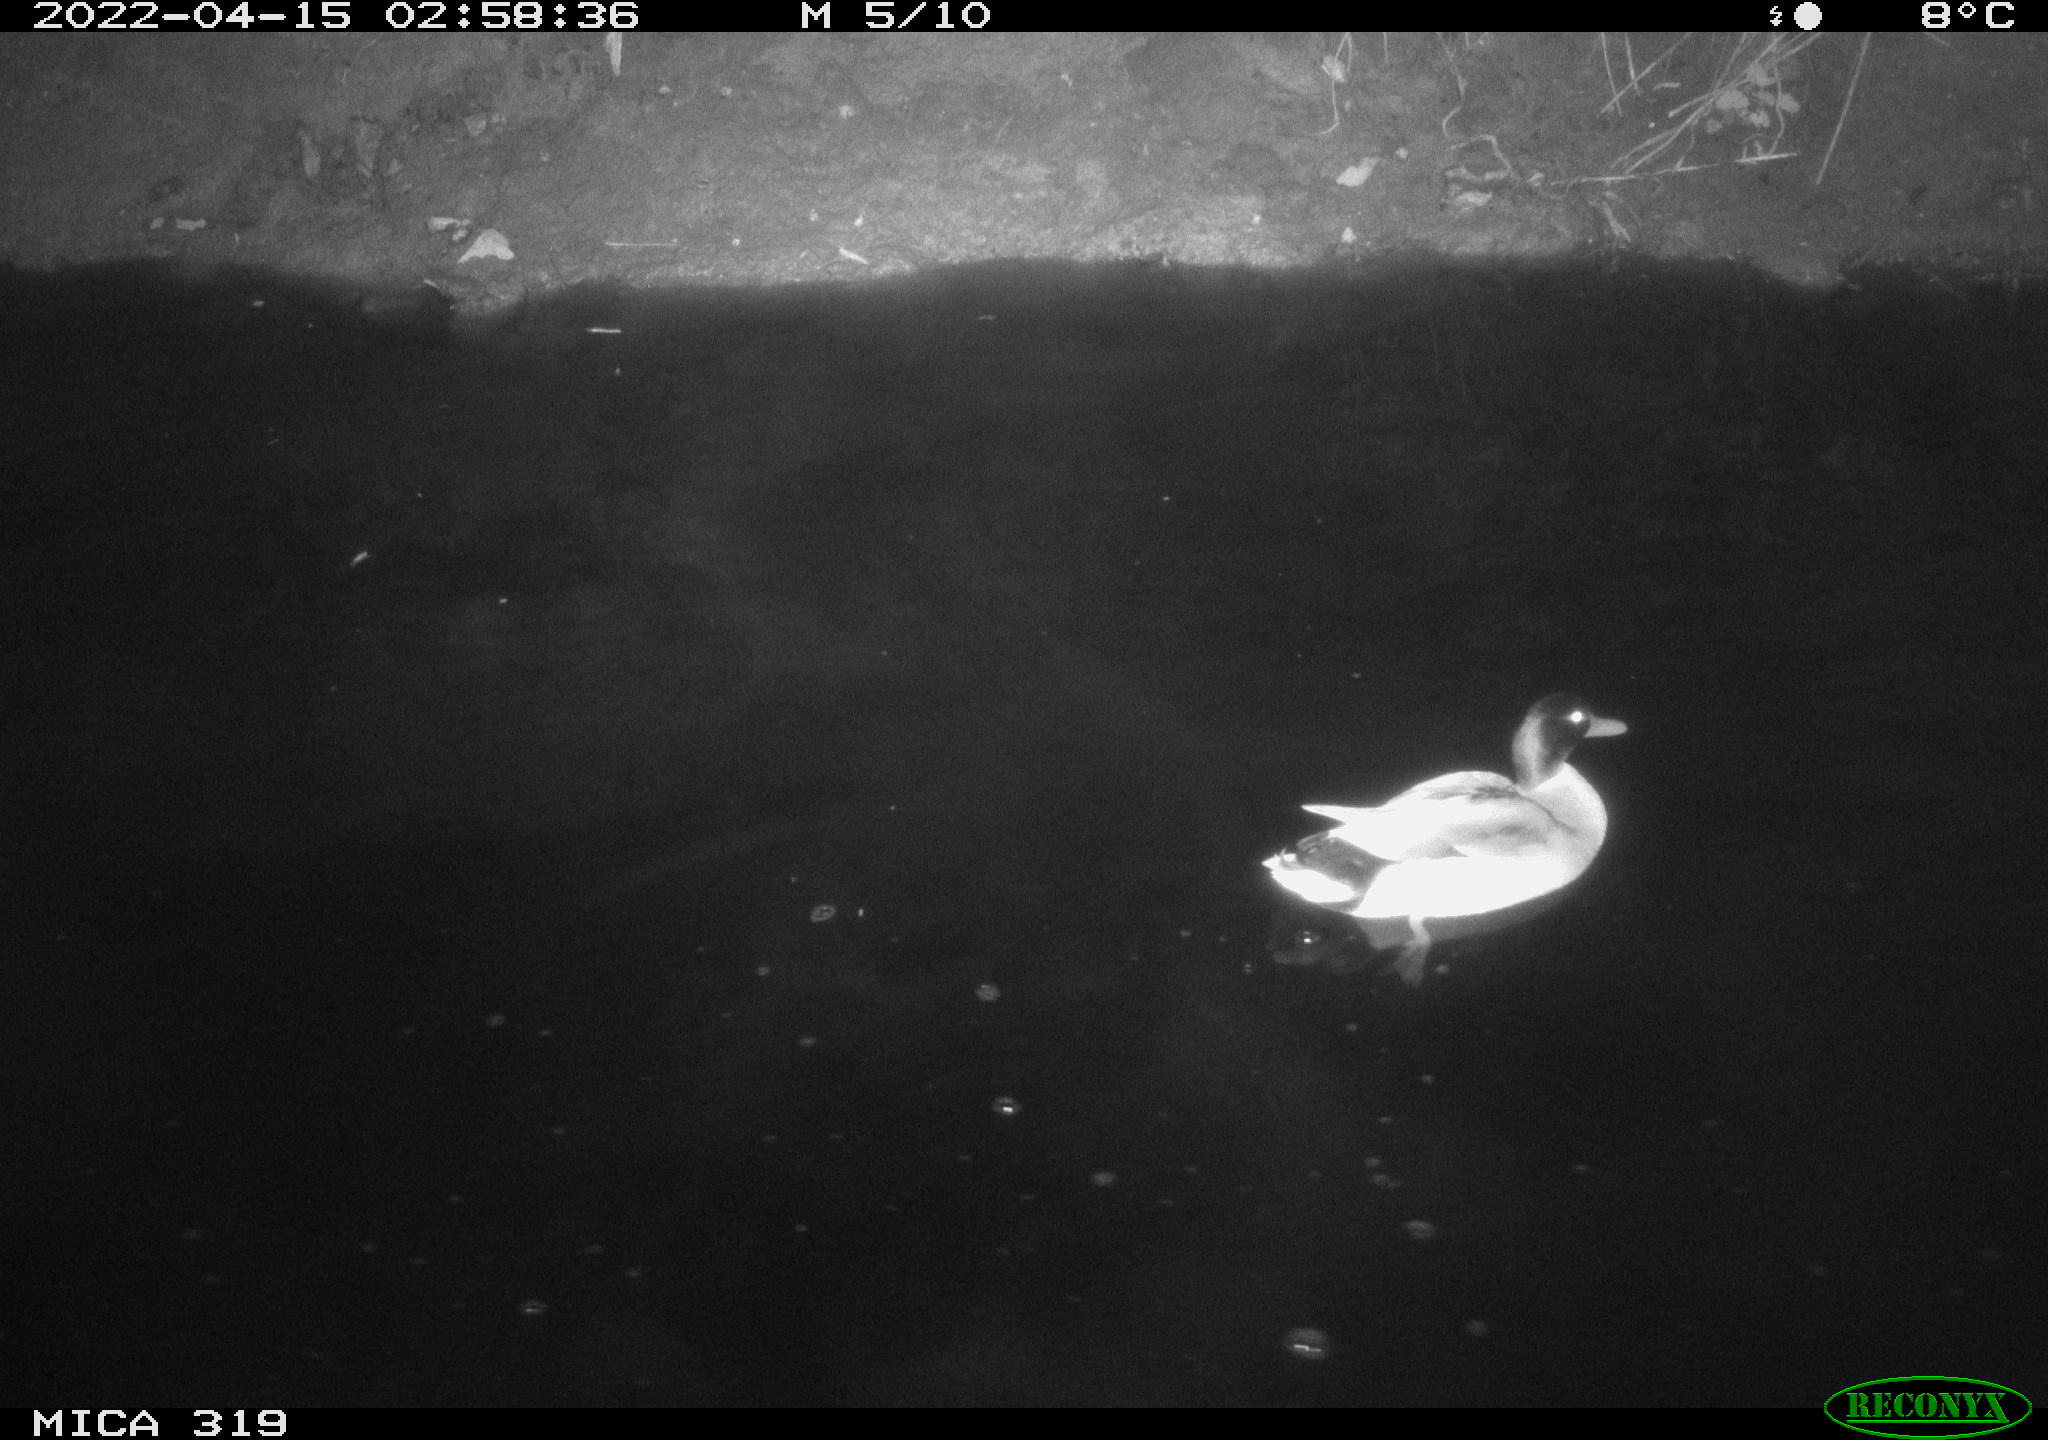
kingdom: Animalia
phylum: Chordata
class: Aves
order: Anseriformes
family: Anatidae
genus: Anas
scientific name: Anas platyrhynchos
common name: Mallard
